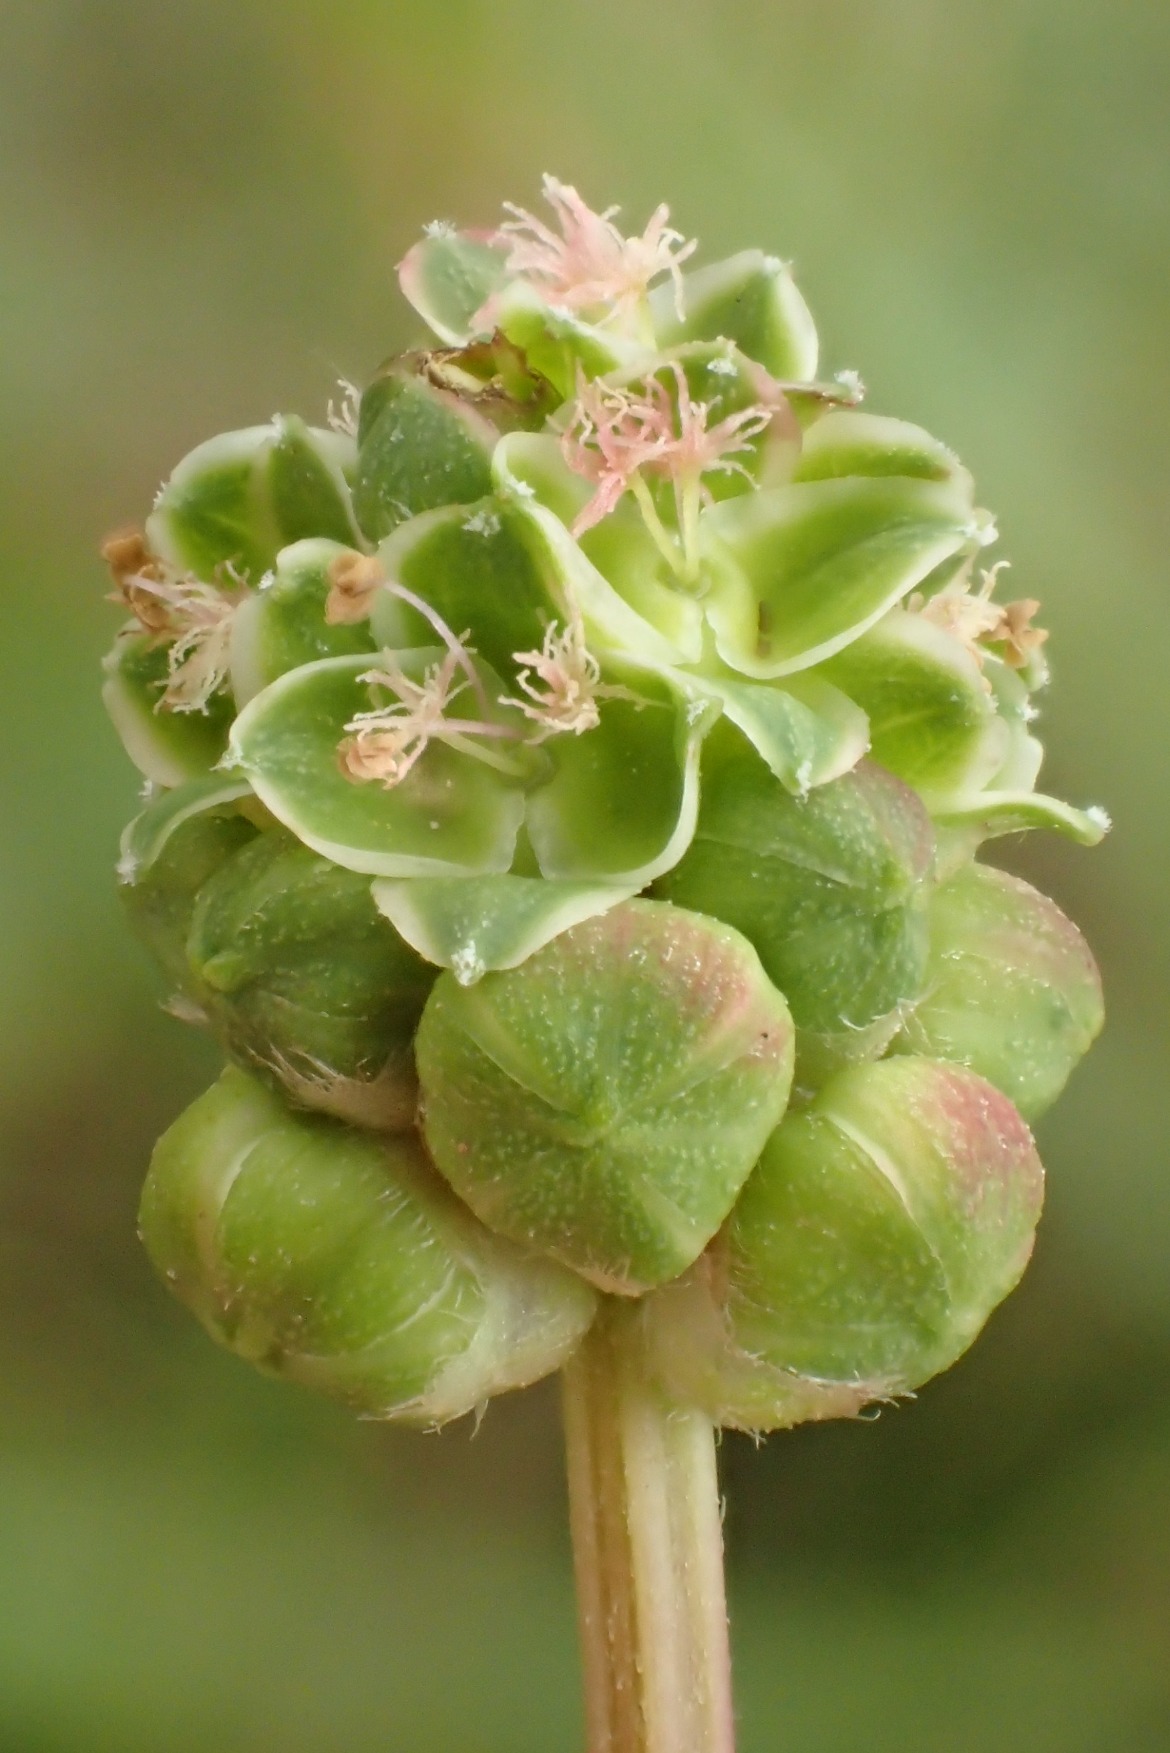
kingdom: Plantae
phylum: Tracheophyta
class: Magnoliopsida
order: Rosales
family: Rosaceae
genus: Poterium
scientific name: Poterium sanguisorba
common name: Blodstillende bibernelle
